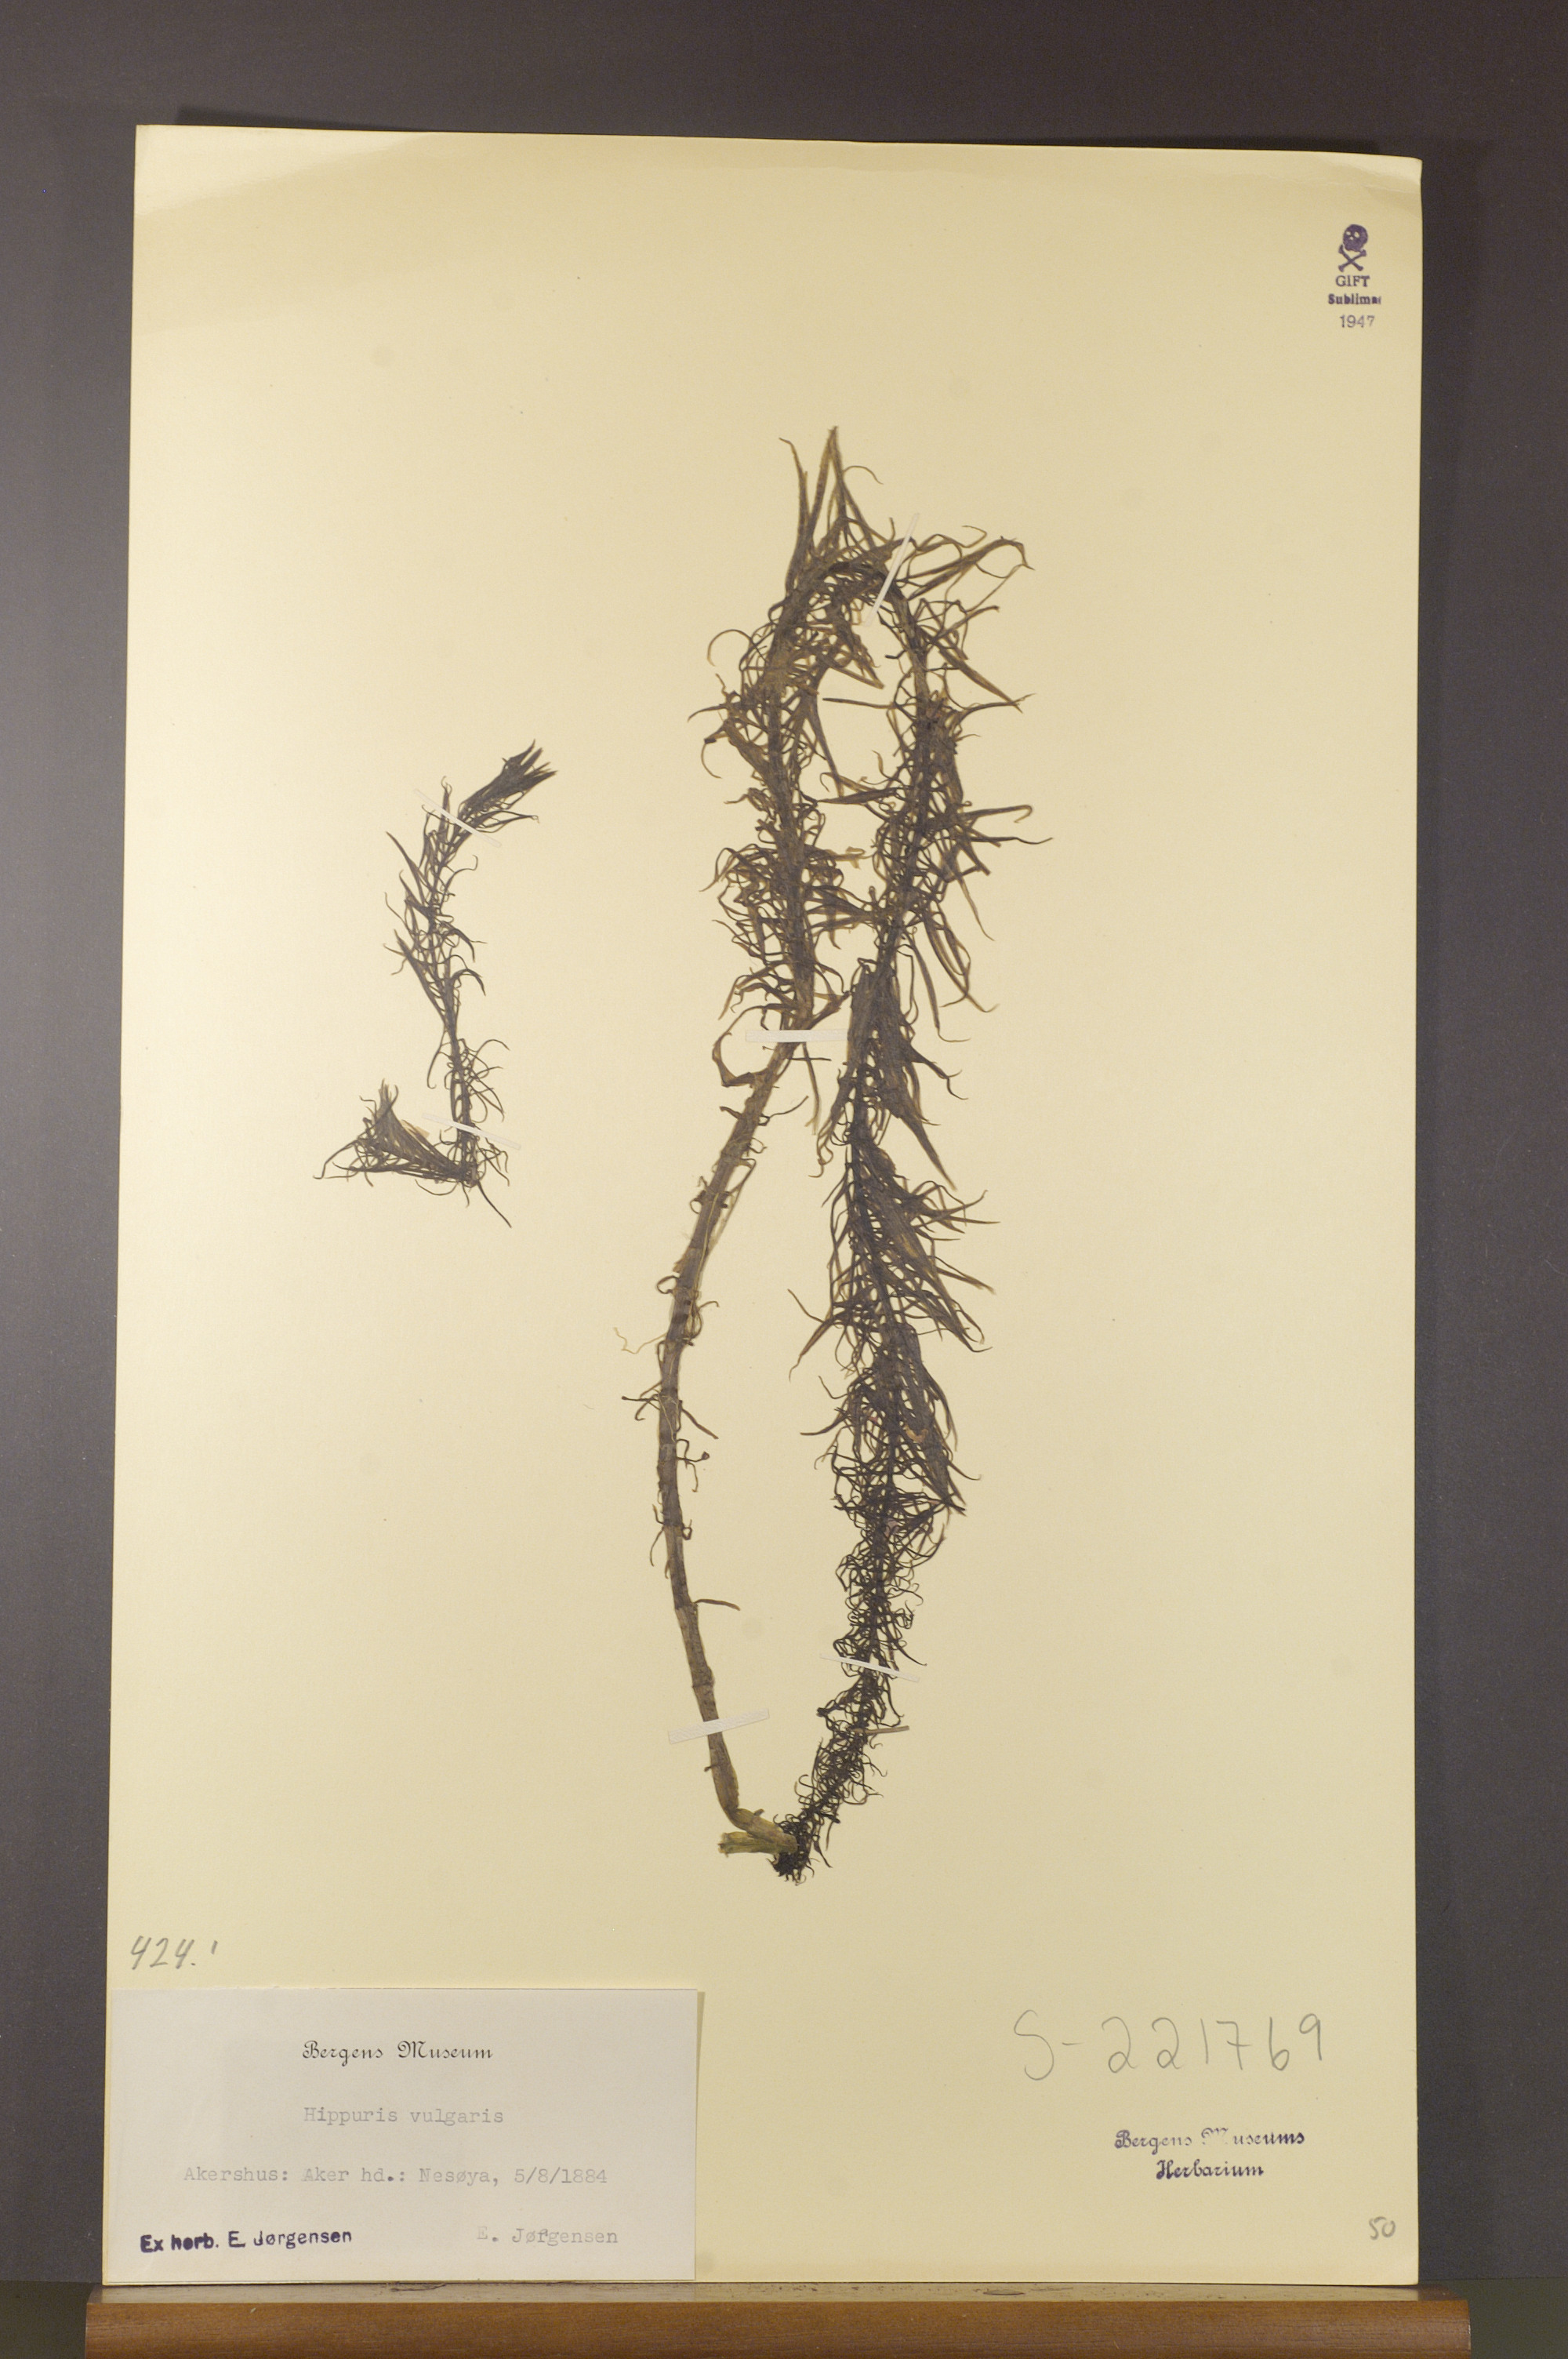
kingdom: Plantae
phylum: Tracheophyta
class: Magnoliopsida
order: Lamiales
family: Plantaginaceae
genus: Hippuris
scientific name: Hippuris vulgaris
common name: Mare's-tail
